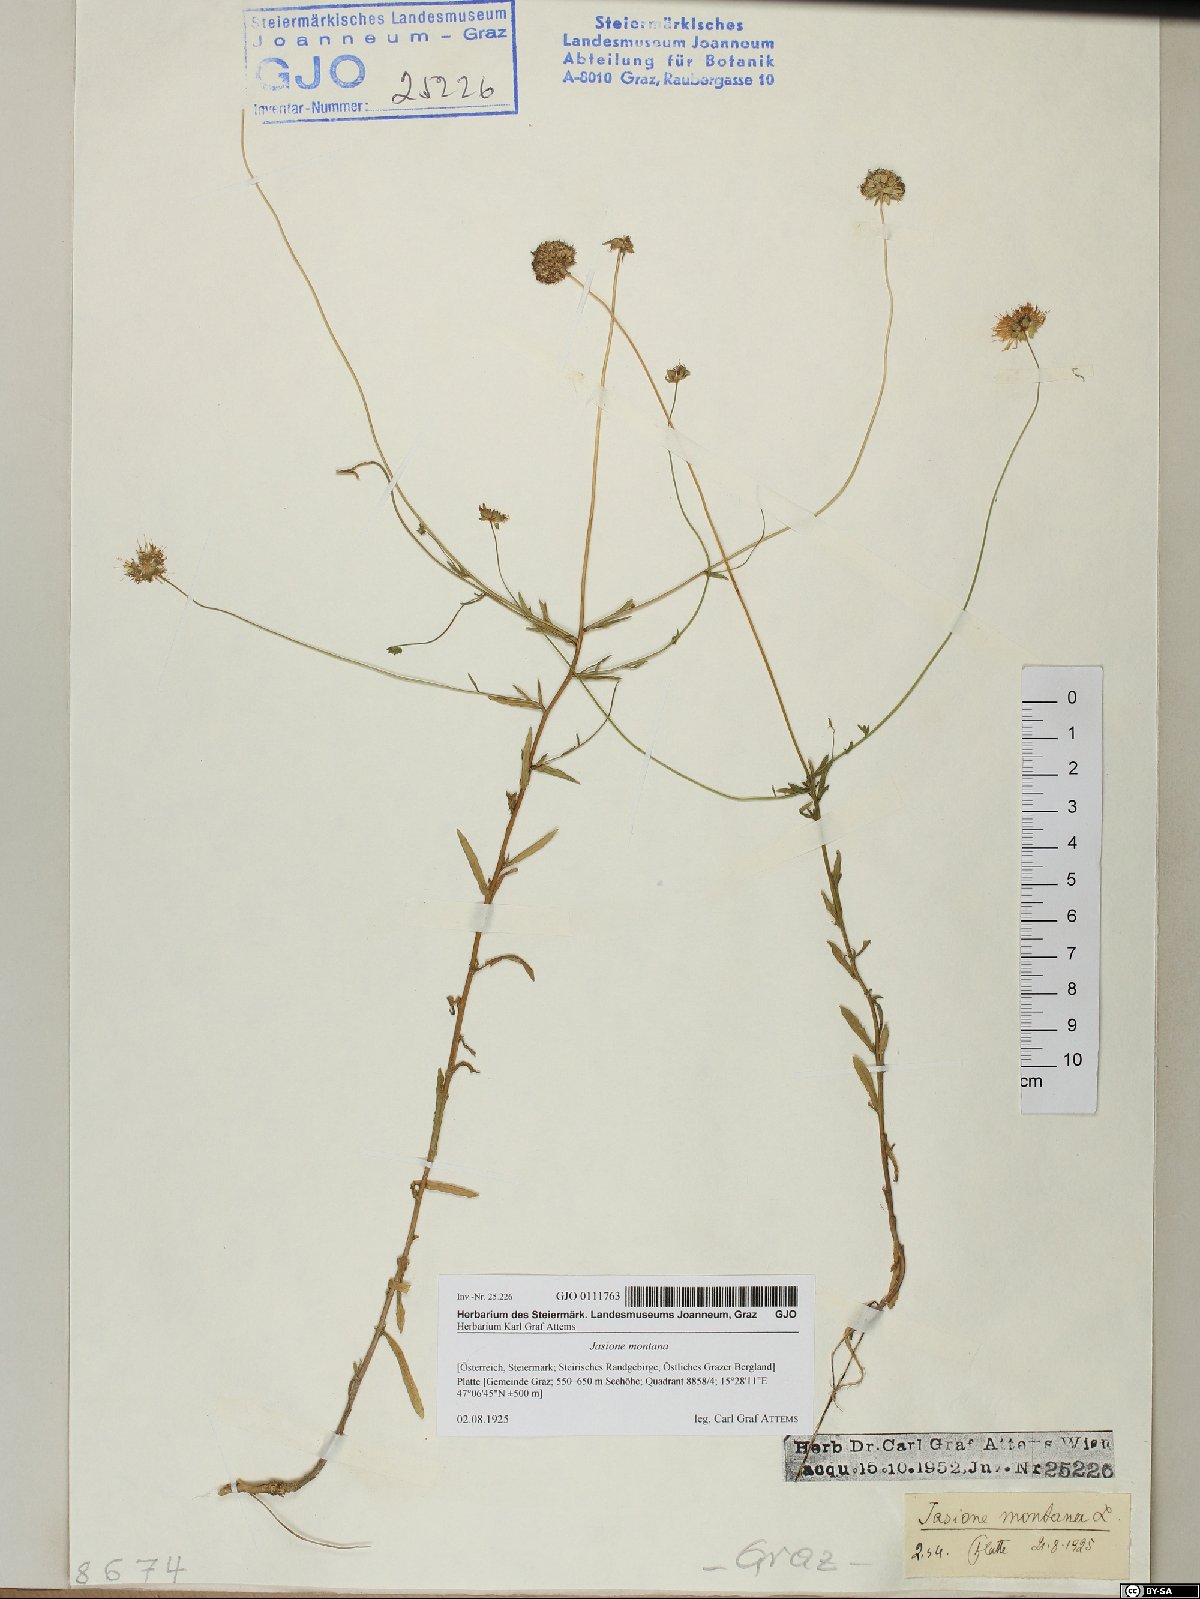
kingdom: Plantae
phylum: Tracheophyta
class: Magnoliopsida
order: Asterales
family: Campanulaceae
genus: Jasione
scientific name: Jasione montana
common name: Sheep's-bit
